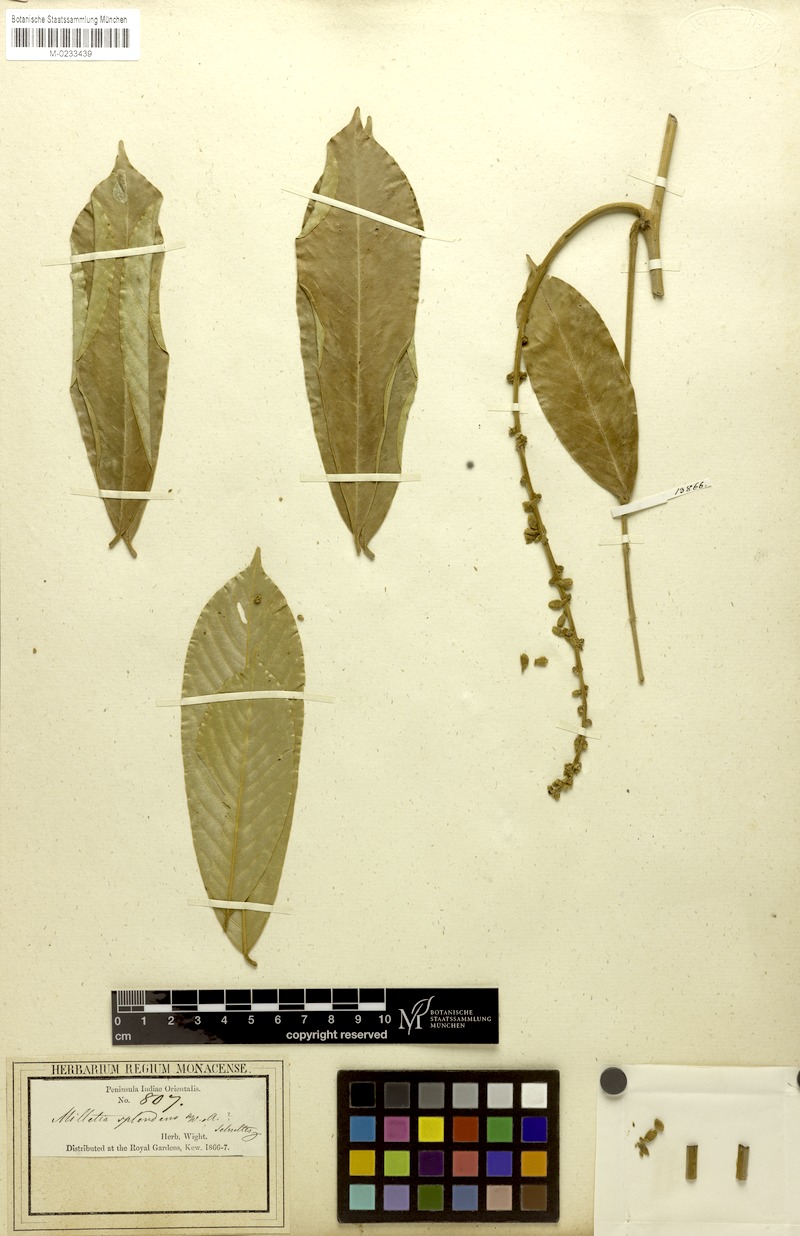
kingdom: Plantae
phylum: Tracheophyta
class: Magnoliopsida
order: Fabales
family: Fabaceae
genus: Millettia
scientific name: Millettia splendens
